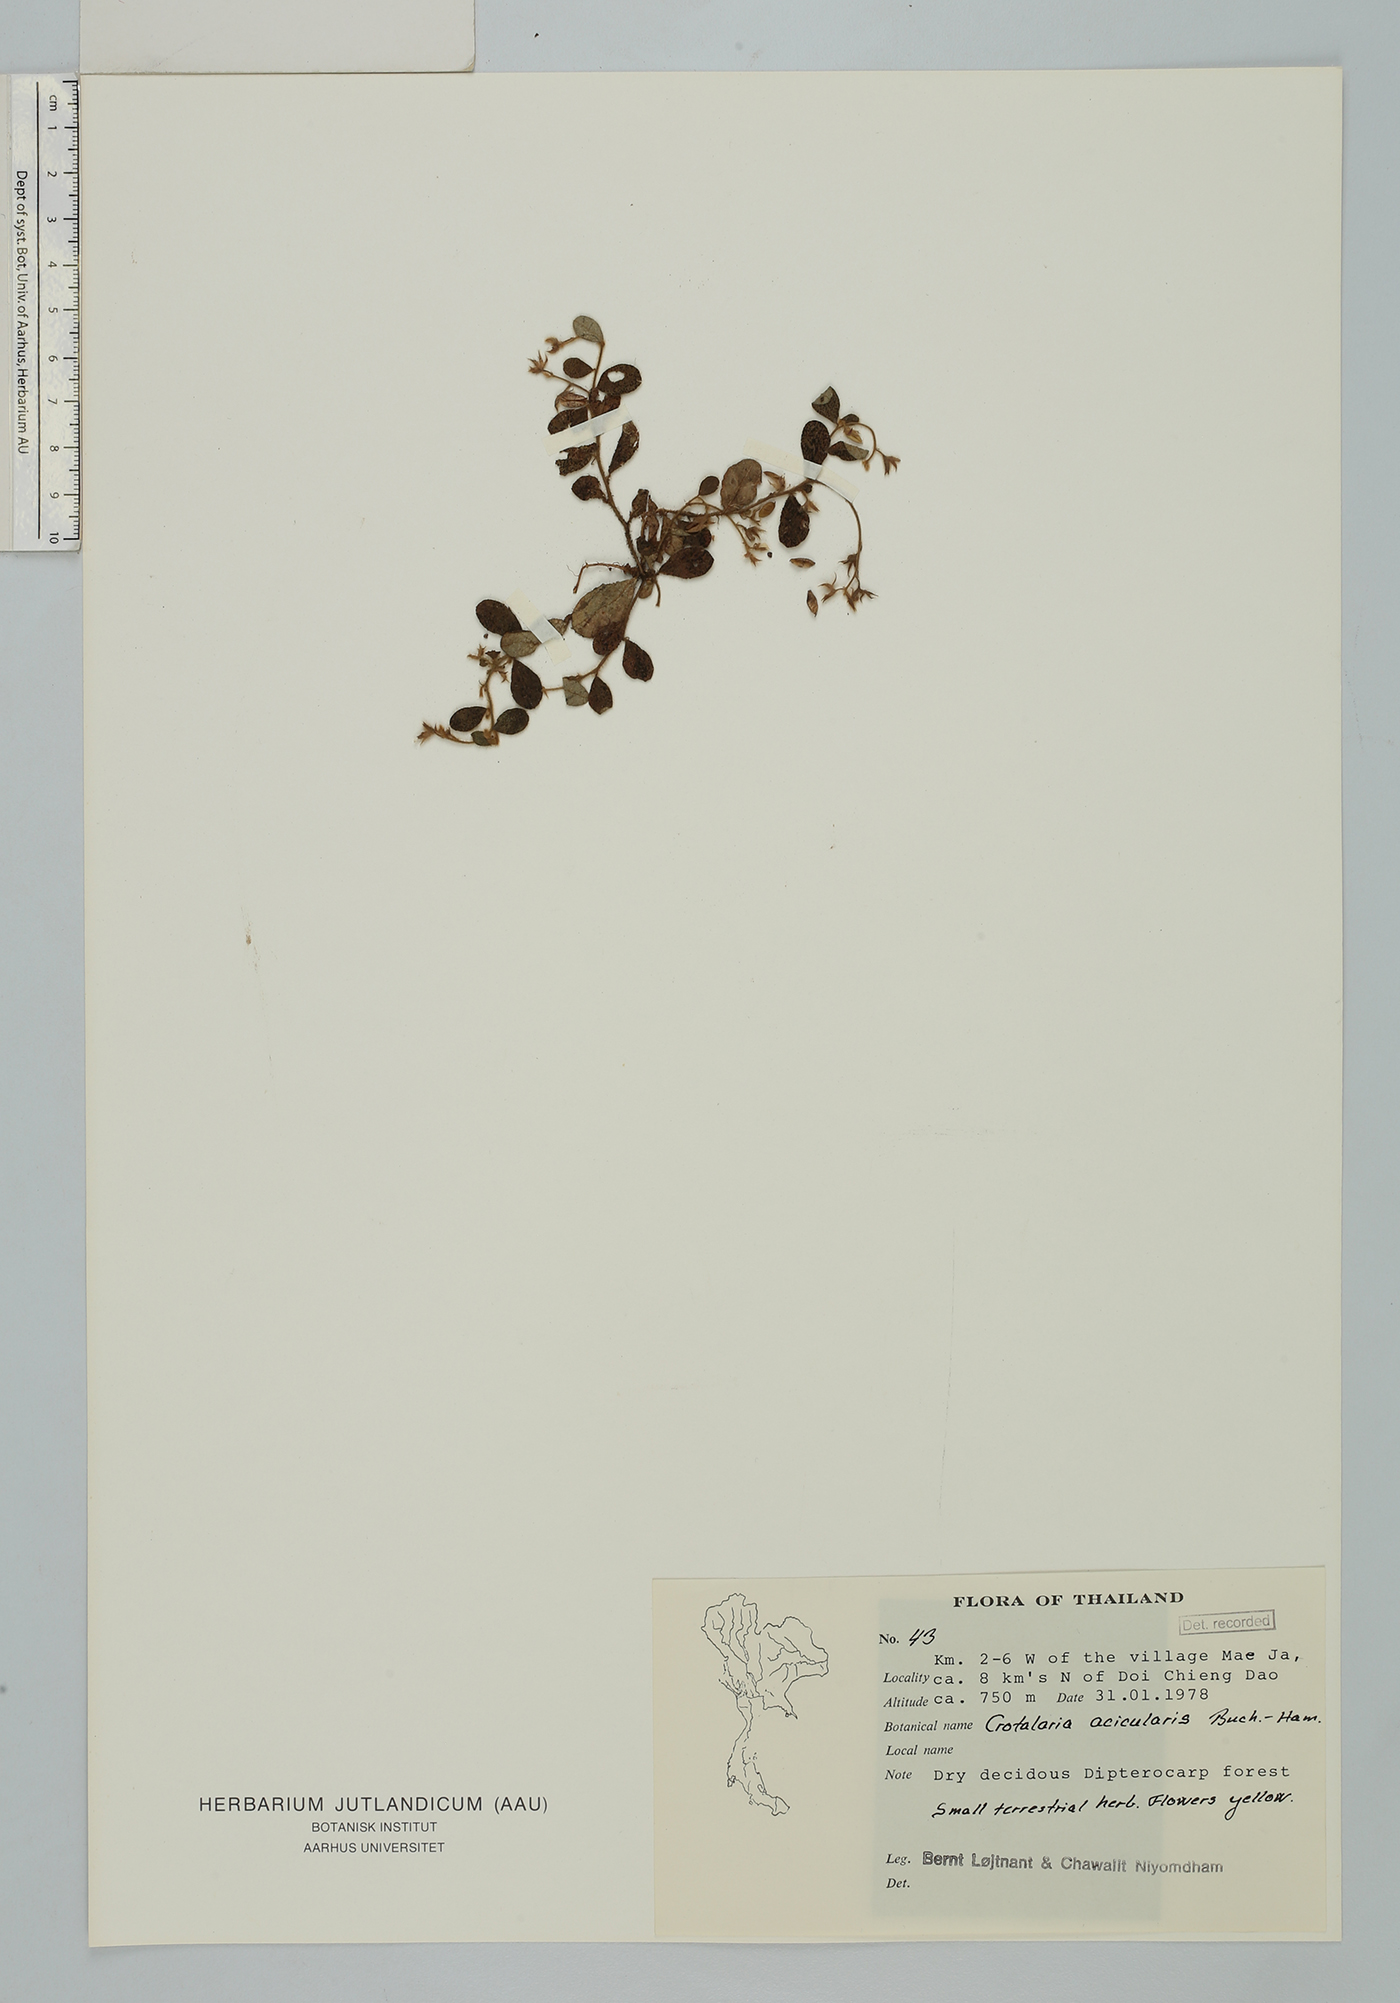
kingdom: Plantae
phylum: Tracheophyta
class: Magnoliopsida
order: Fabales
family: Fabaceae
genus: Crotalaria
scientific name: Crotalaria acicularis
